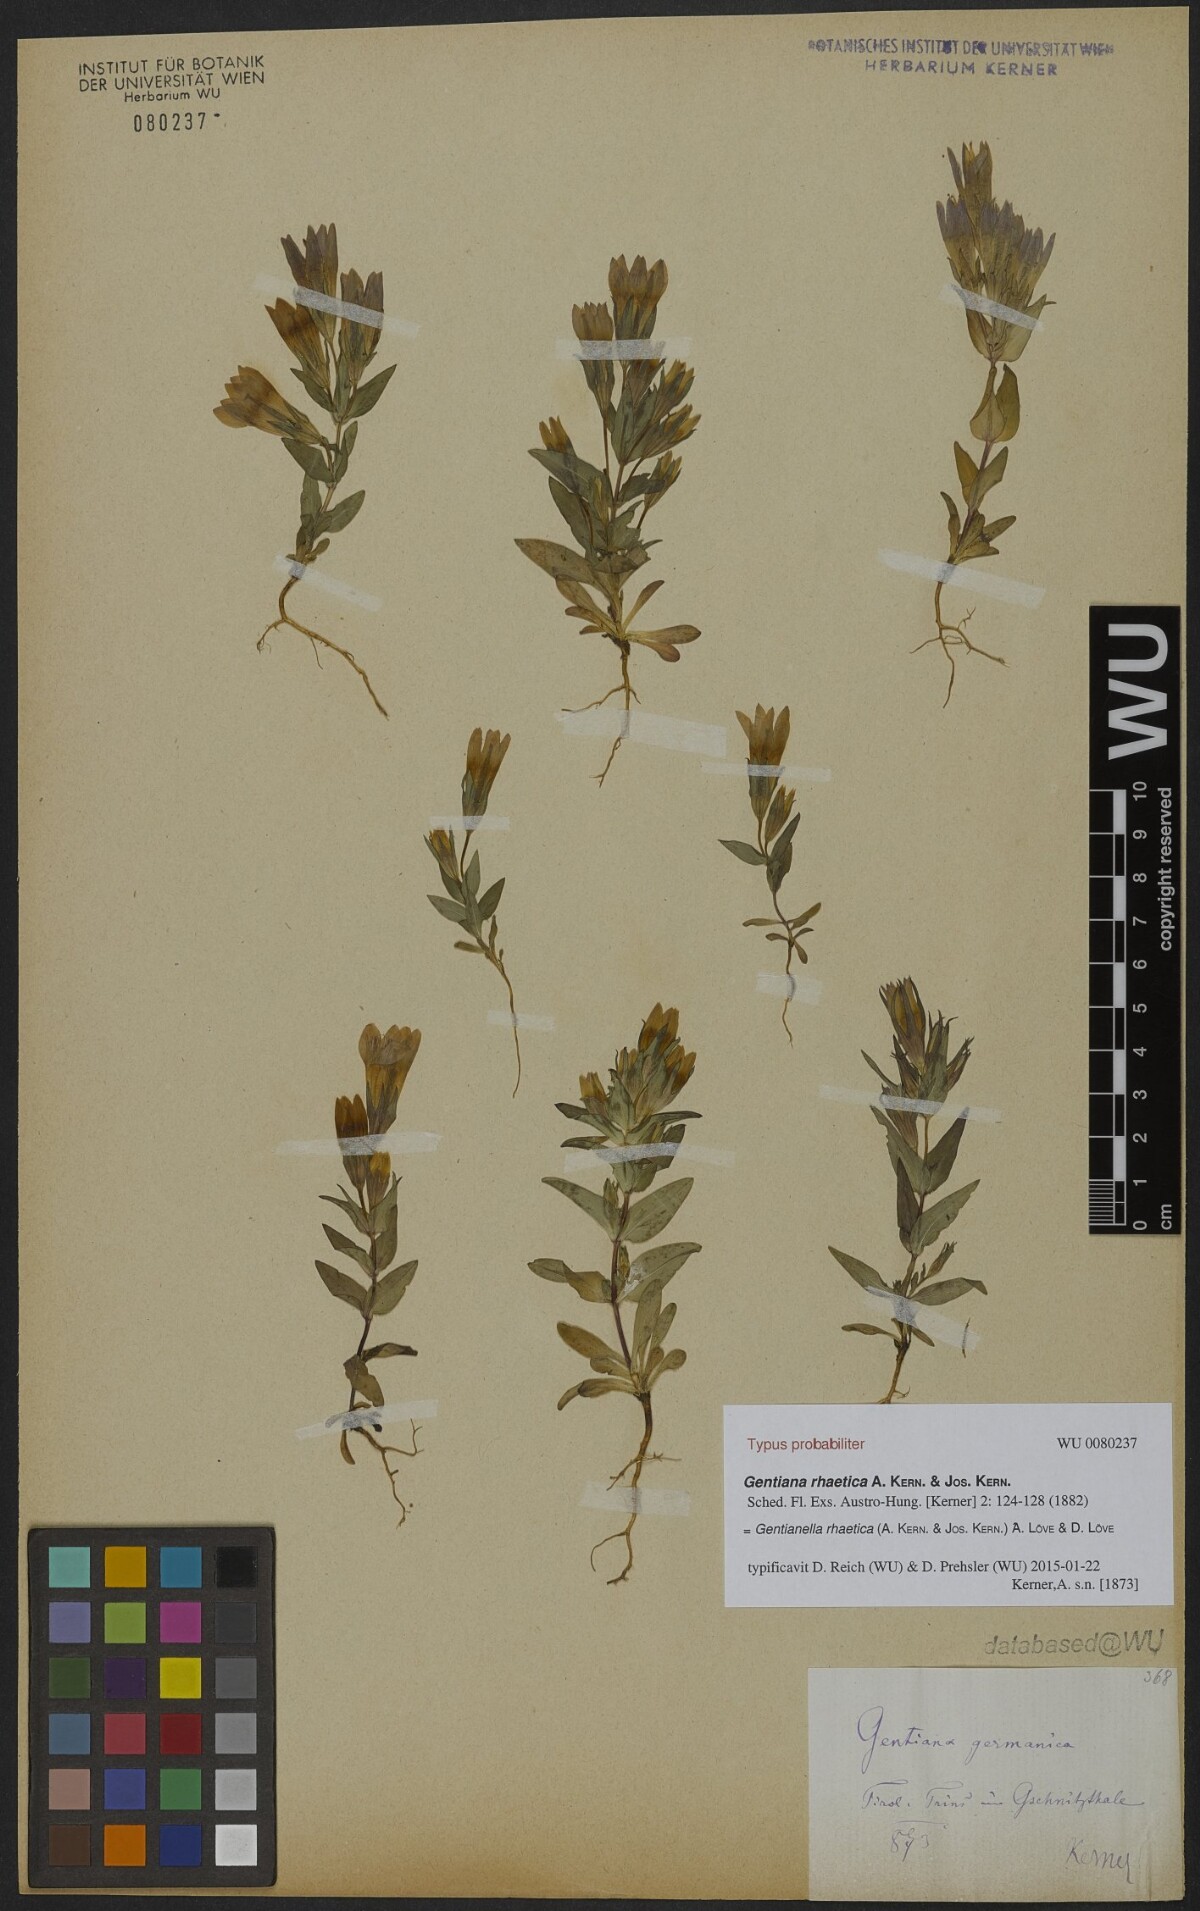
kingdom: Plantae
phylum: Tracheophyta
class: Magnoliopsida
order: Gentianales
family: Gentianaceae
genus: Gentianella
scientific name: Gentianella rhaetica
